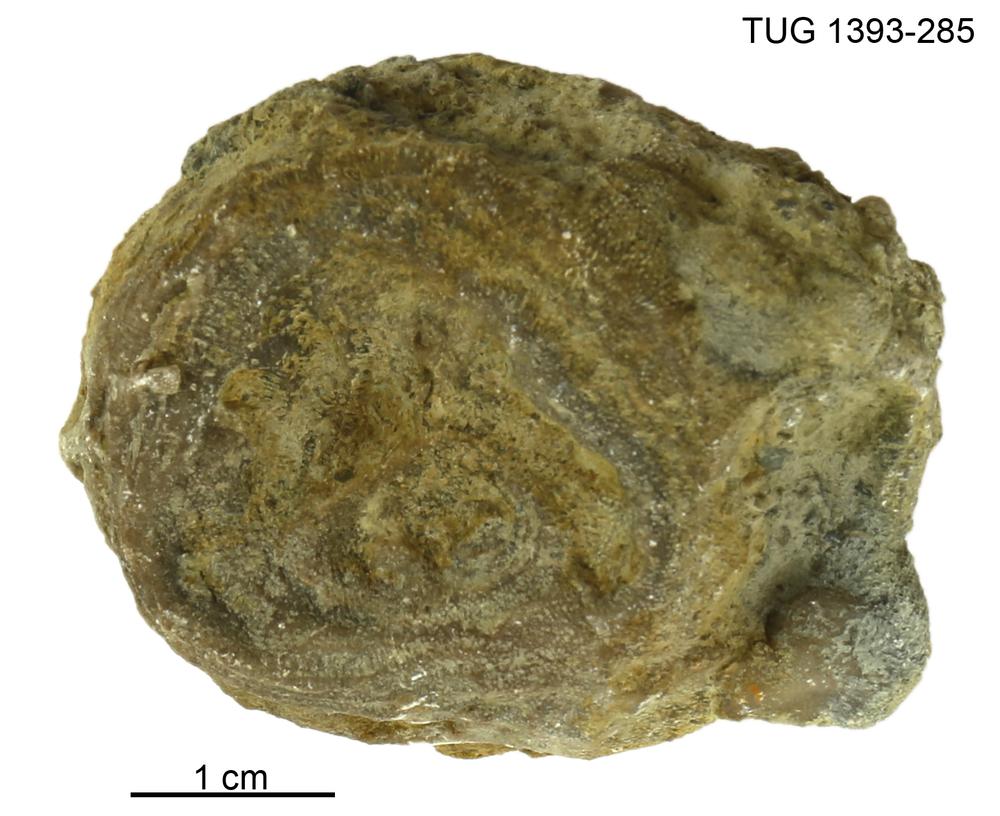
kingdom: Animalia
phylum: Bryozoa
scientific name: Bryozoa
